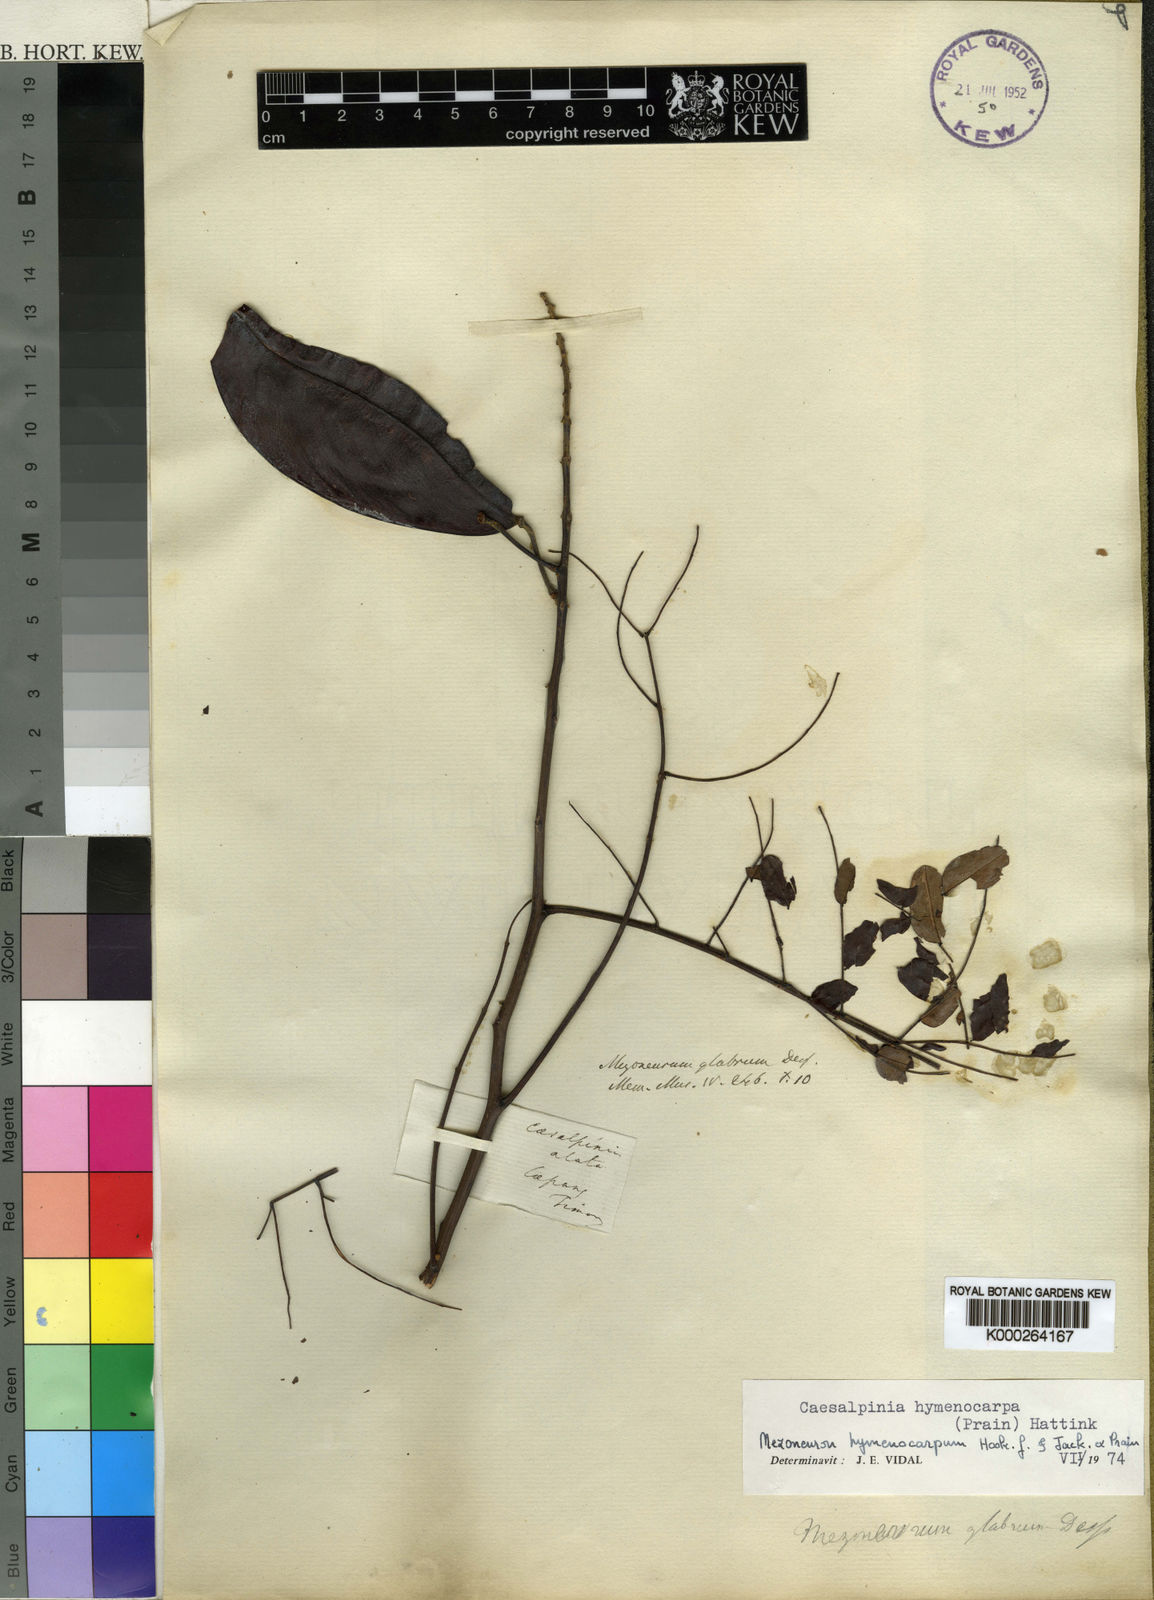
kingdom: Plantae
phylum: Tracheophyta
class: Magnoliopsida
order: Fabales
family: Fabaceae
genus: Mezoneuron
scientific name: Mezoneuron pubescens
